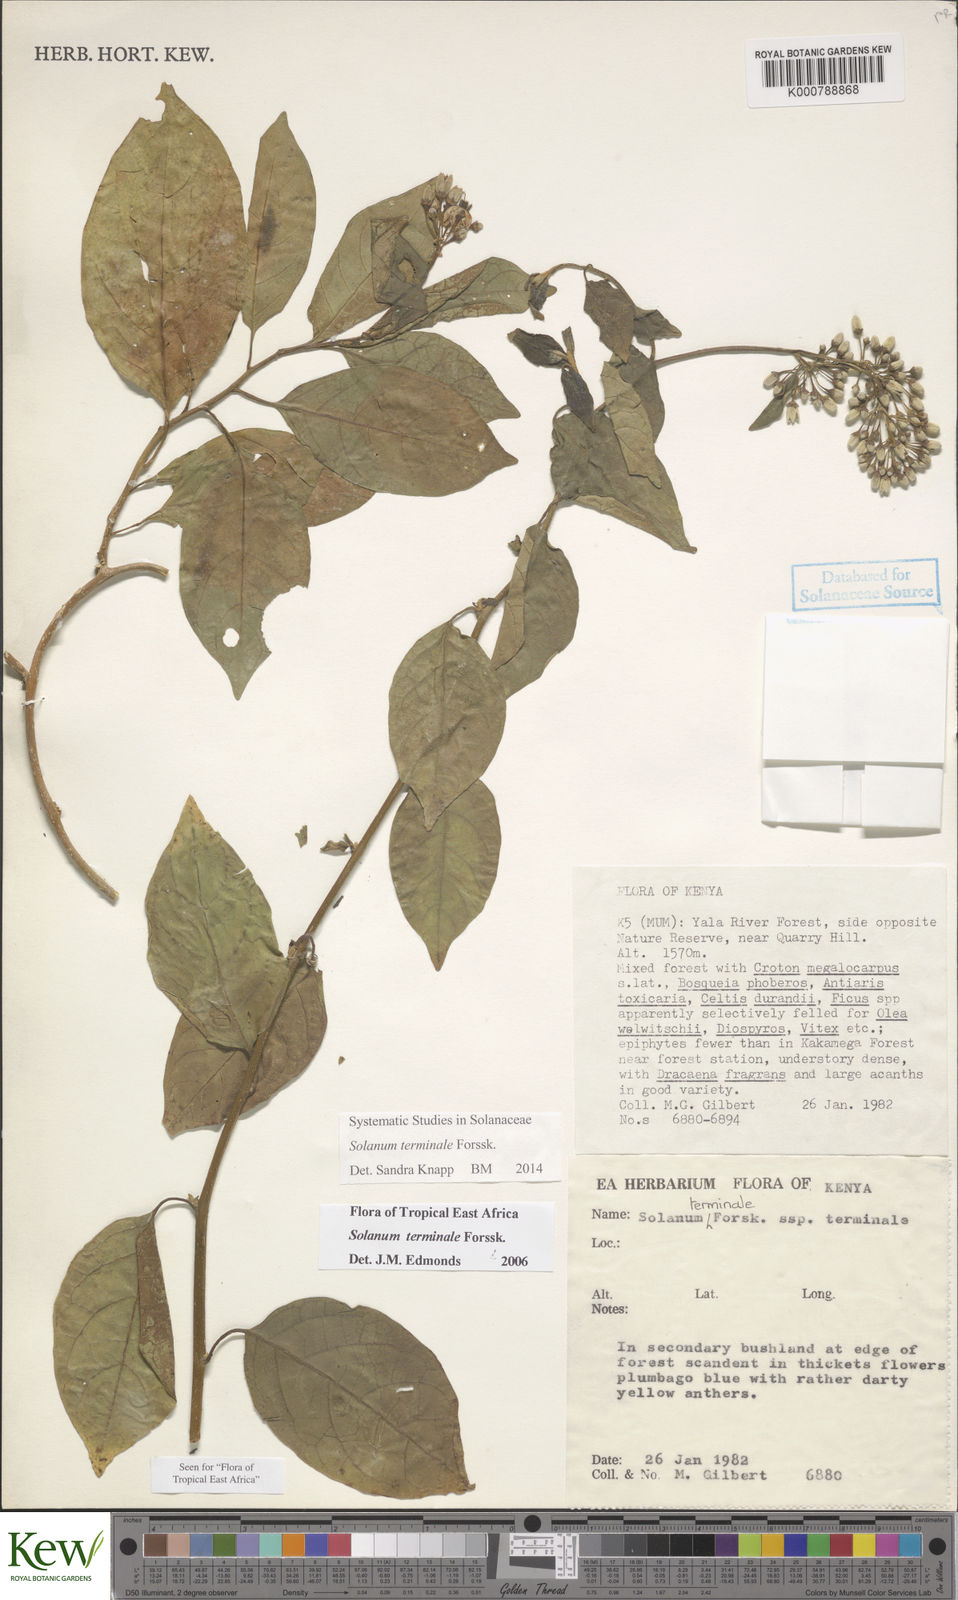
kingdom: Plantae
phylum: Tracheophyta
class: Magnoliopsida
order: Solanales
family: Solanaceae
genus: Solanum
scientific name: Solanum terminale
